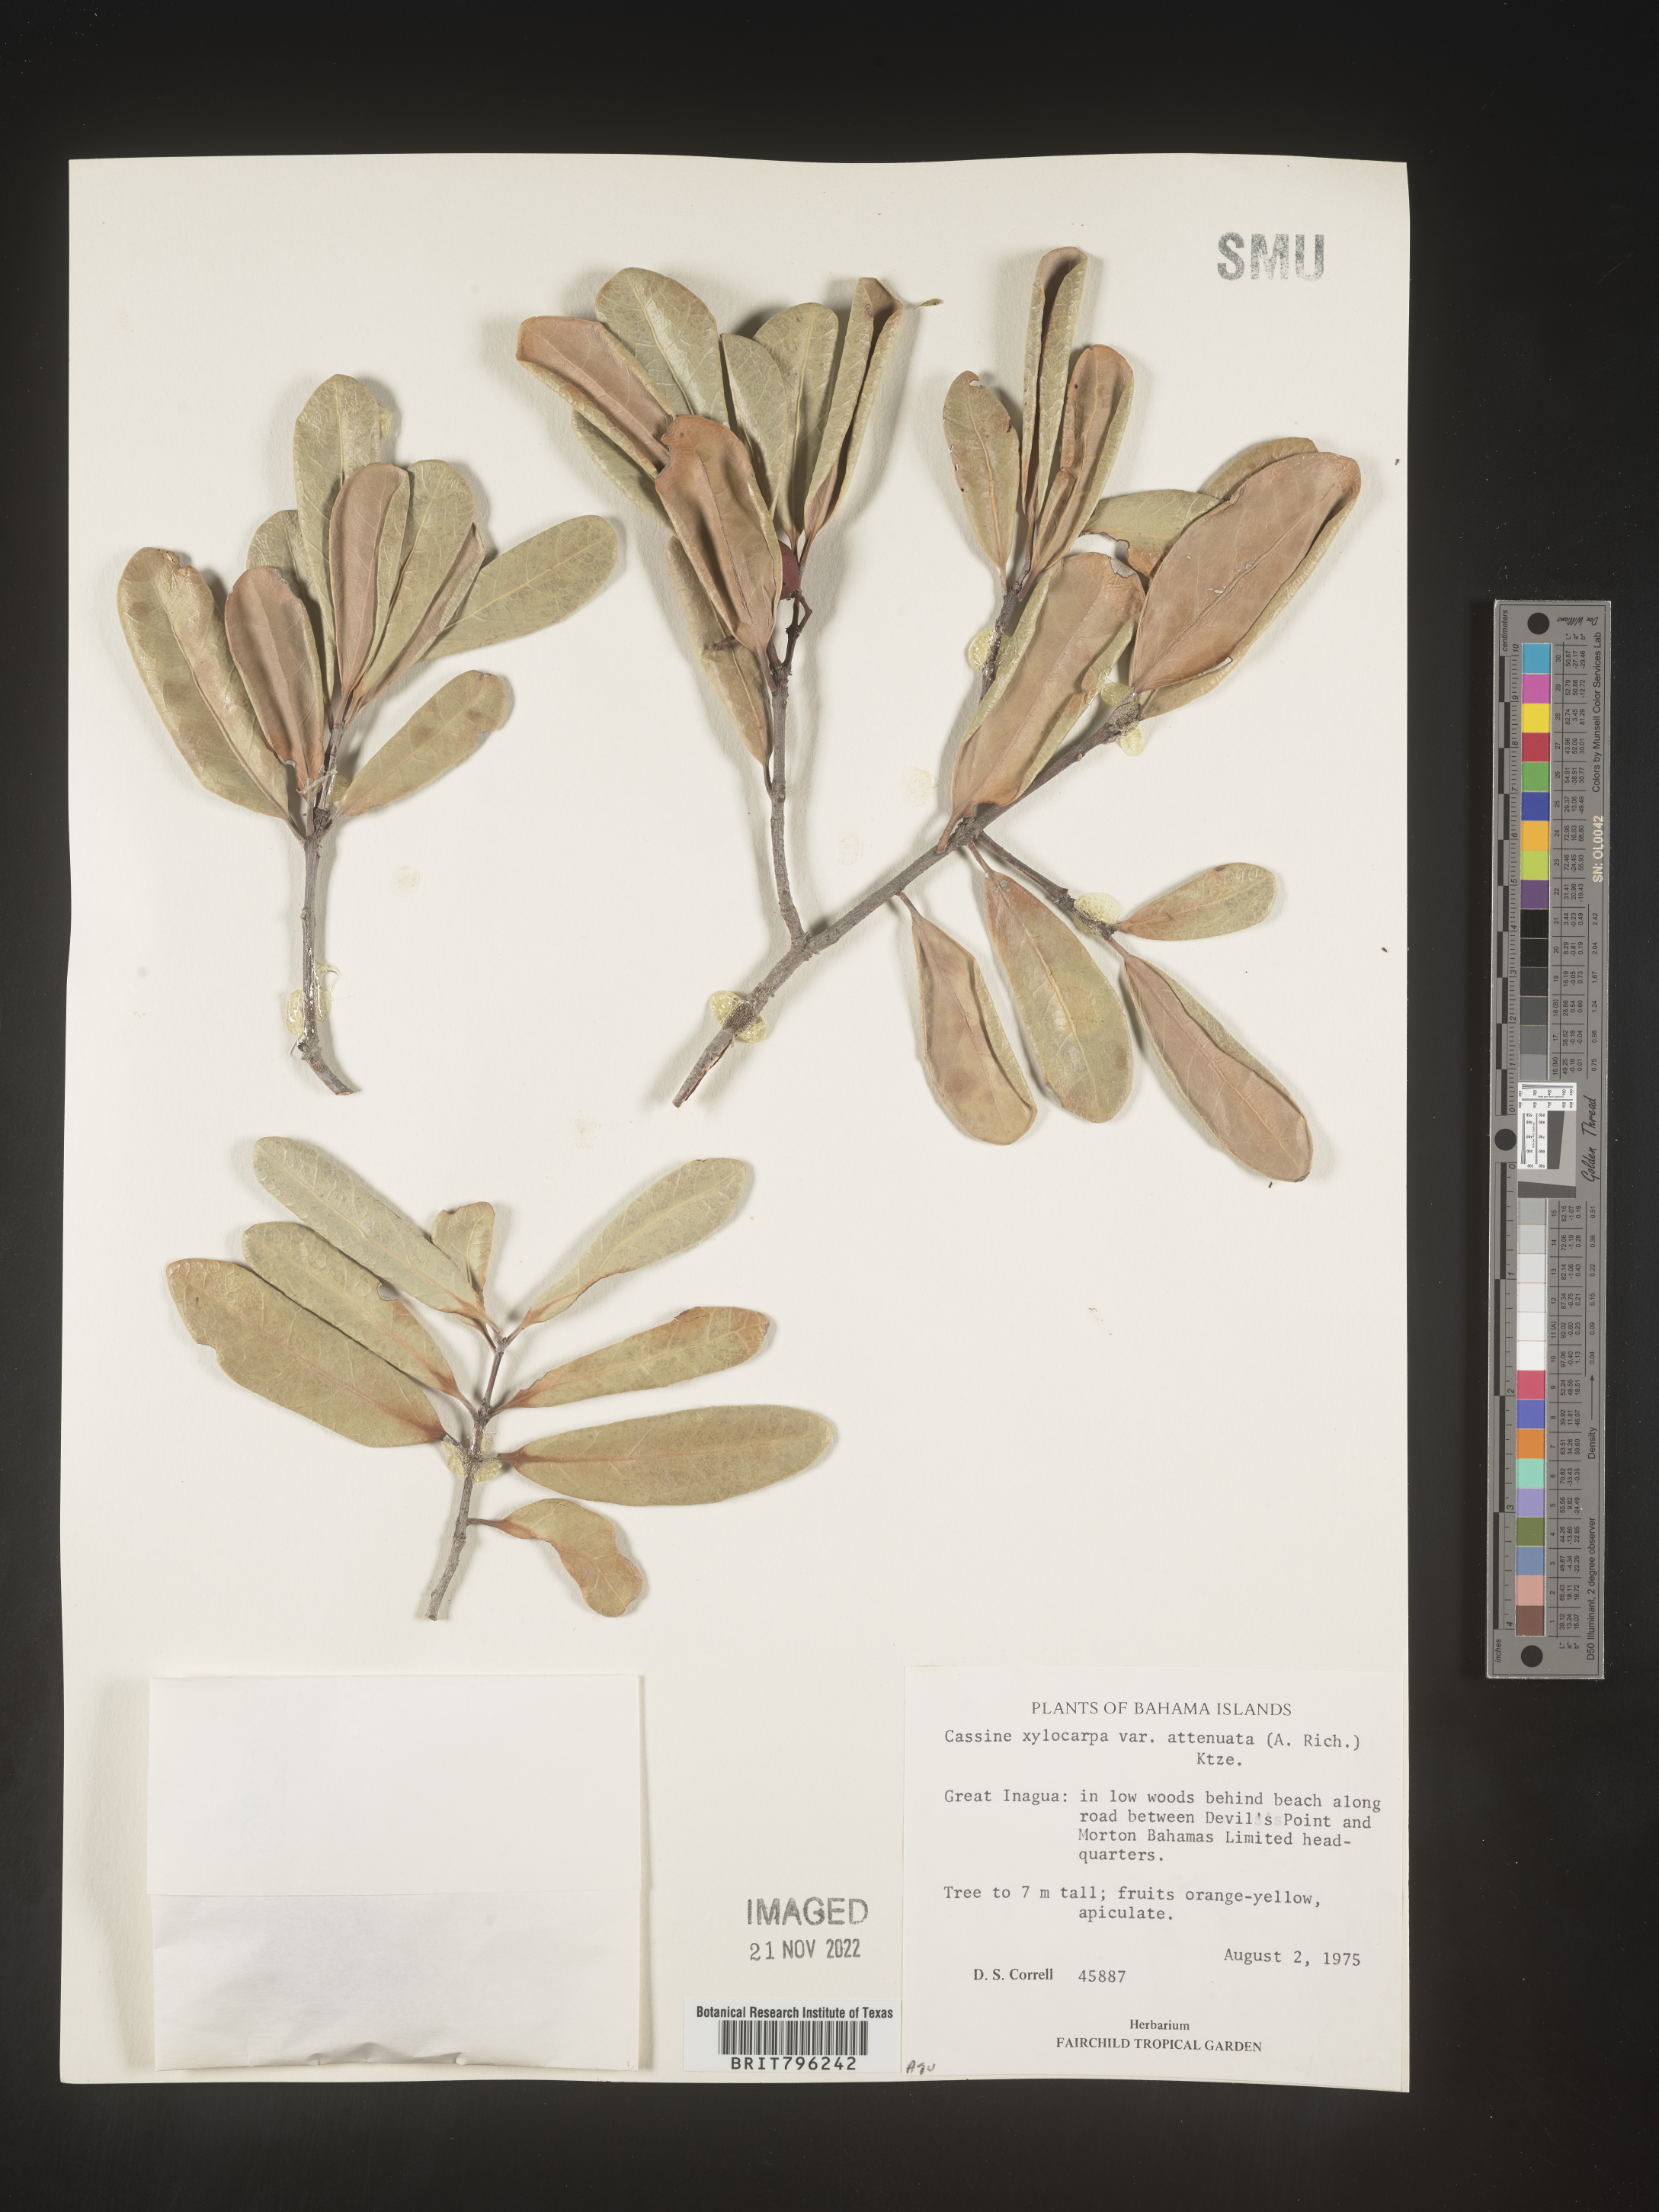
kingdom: Plantae
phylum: Tracheophyta
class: Magnoliopsida
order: Celastrales
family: Celastraceae
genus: Elaeodendron
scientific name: Elaeodendron
